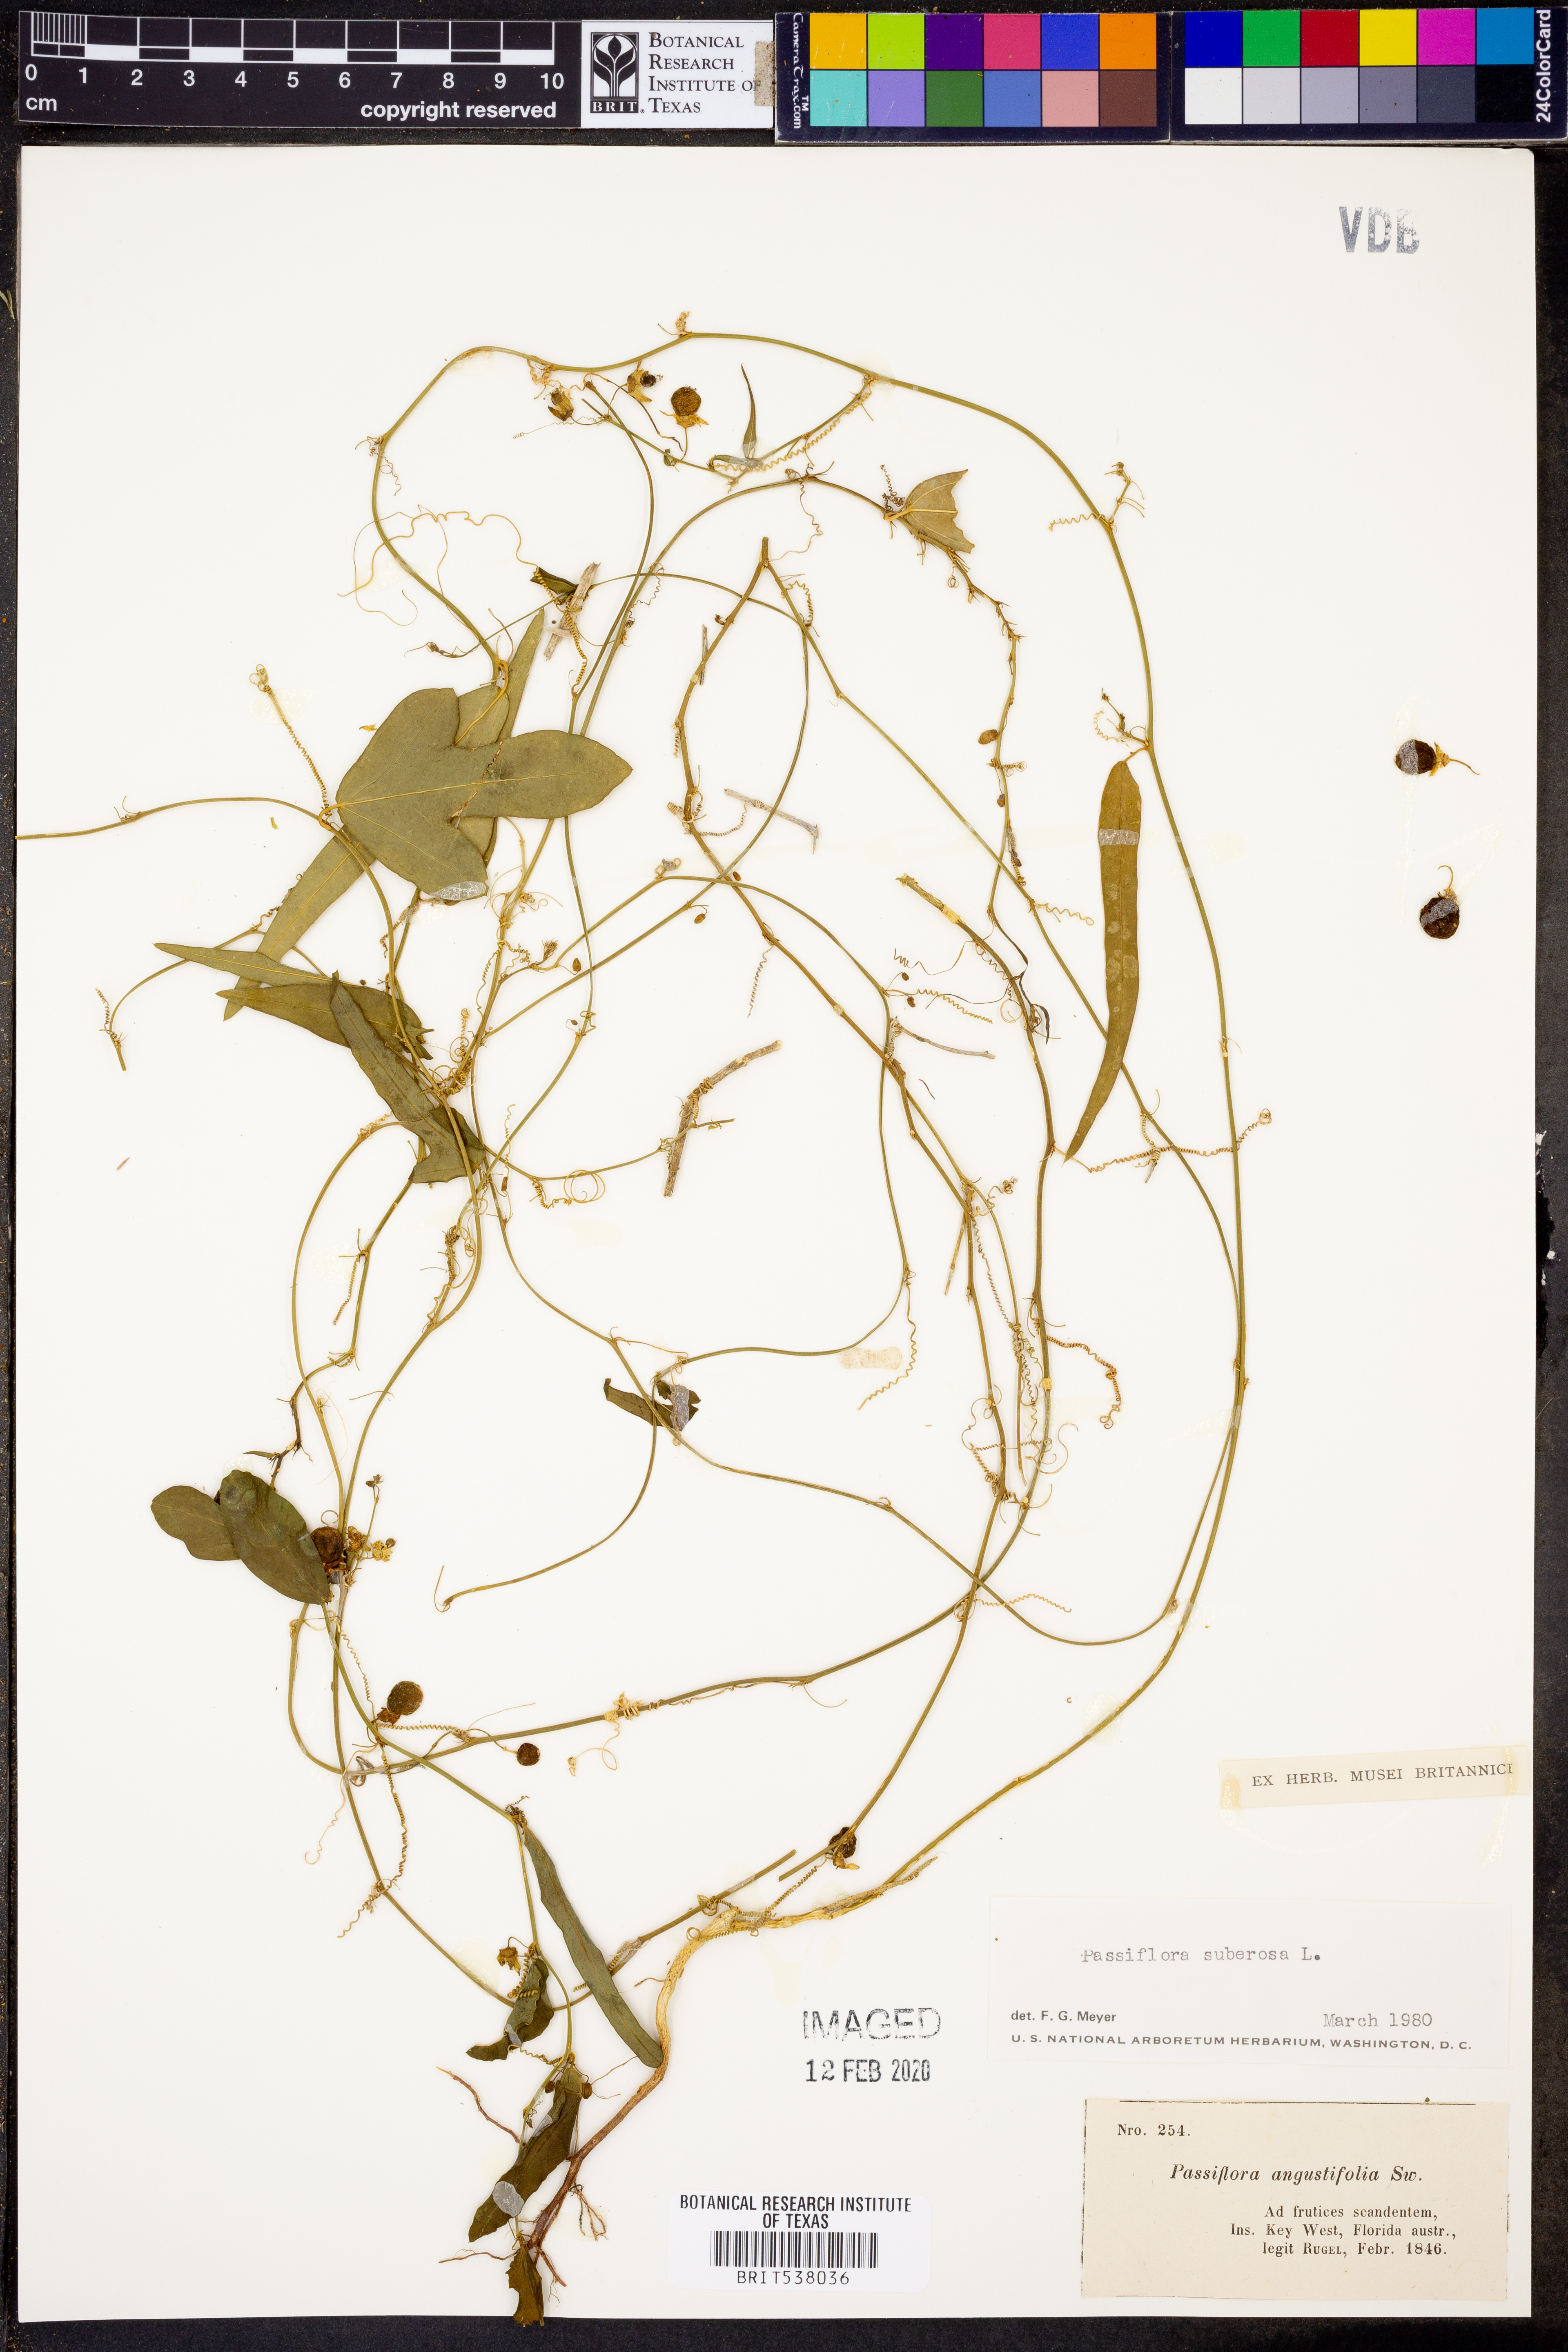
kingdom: Plantae
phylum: Tracheophyta
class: Magnoliopsida
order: Malpighiales
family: Passifloraceae
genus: Passiflora
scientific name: Passiflora suberosa
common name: Wild passionfruit
